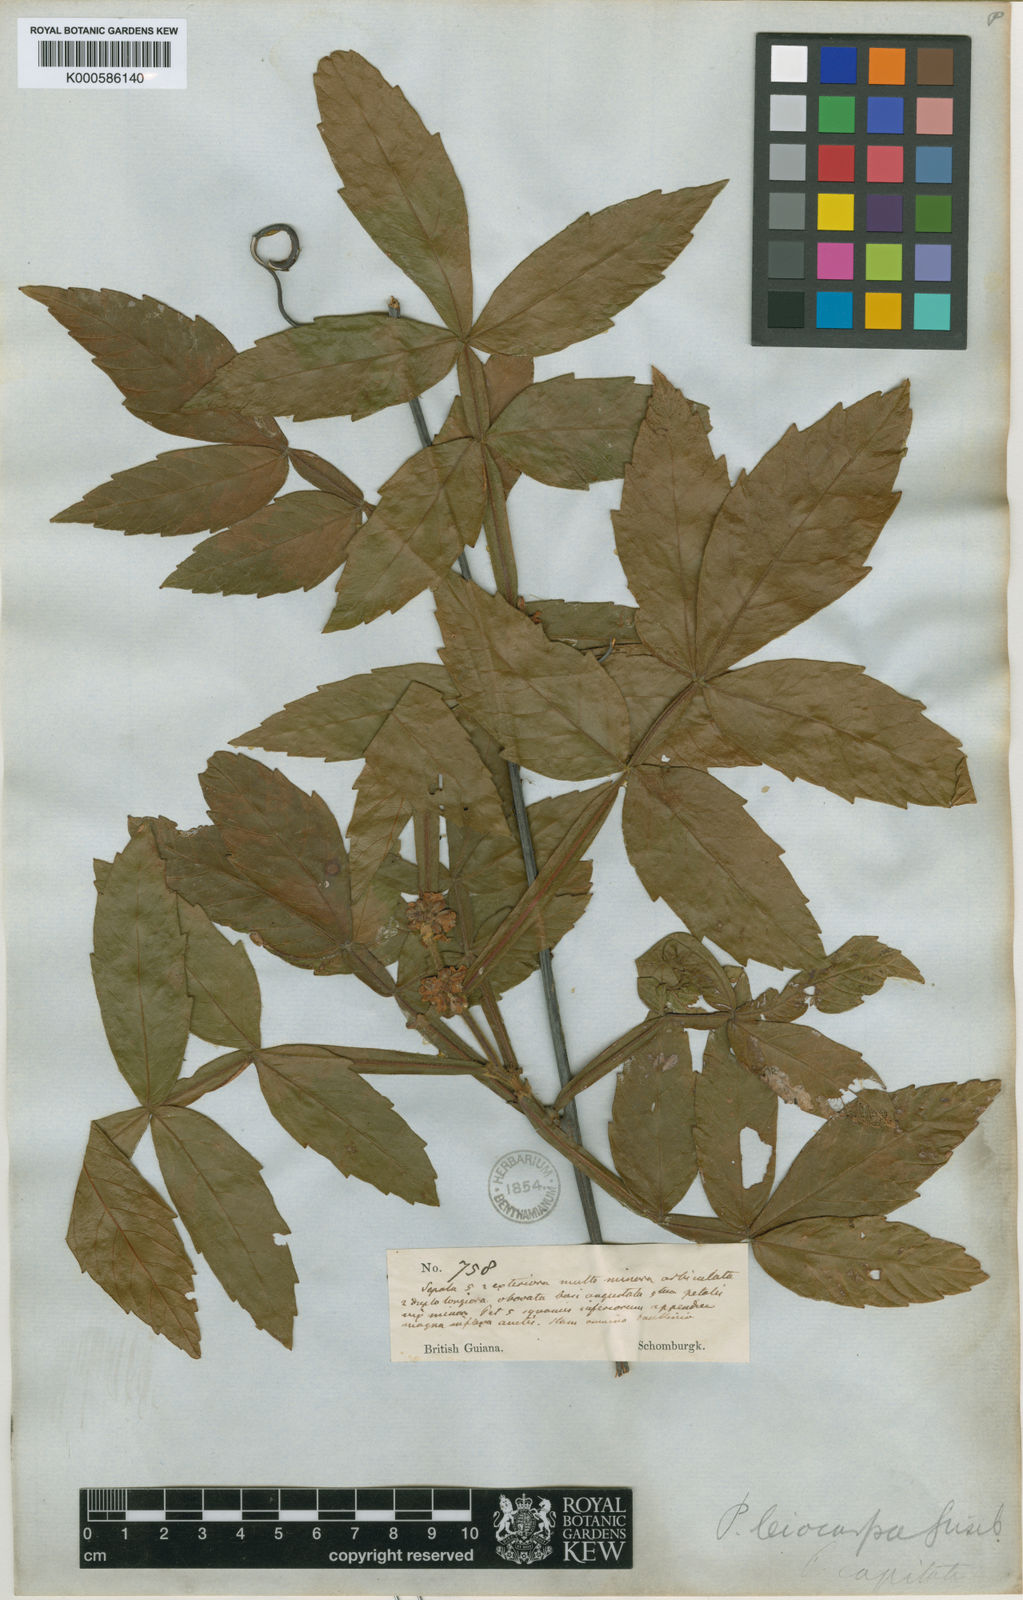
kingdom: Plantae
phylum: Tracheophyta
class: Magnoliopsida
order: Sapindales
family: Sapindaceae
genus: Paullinia
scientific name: Paullinia leiocarpa
